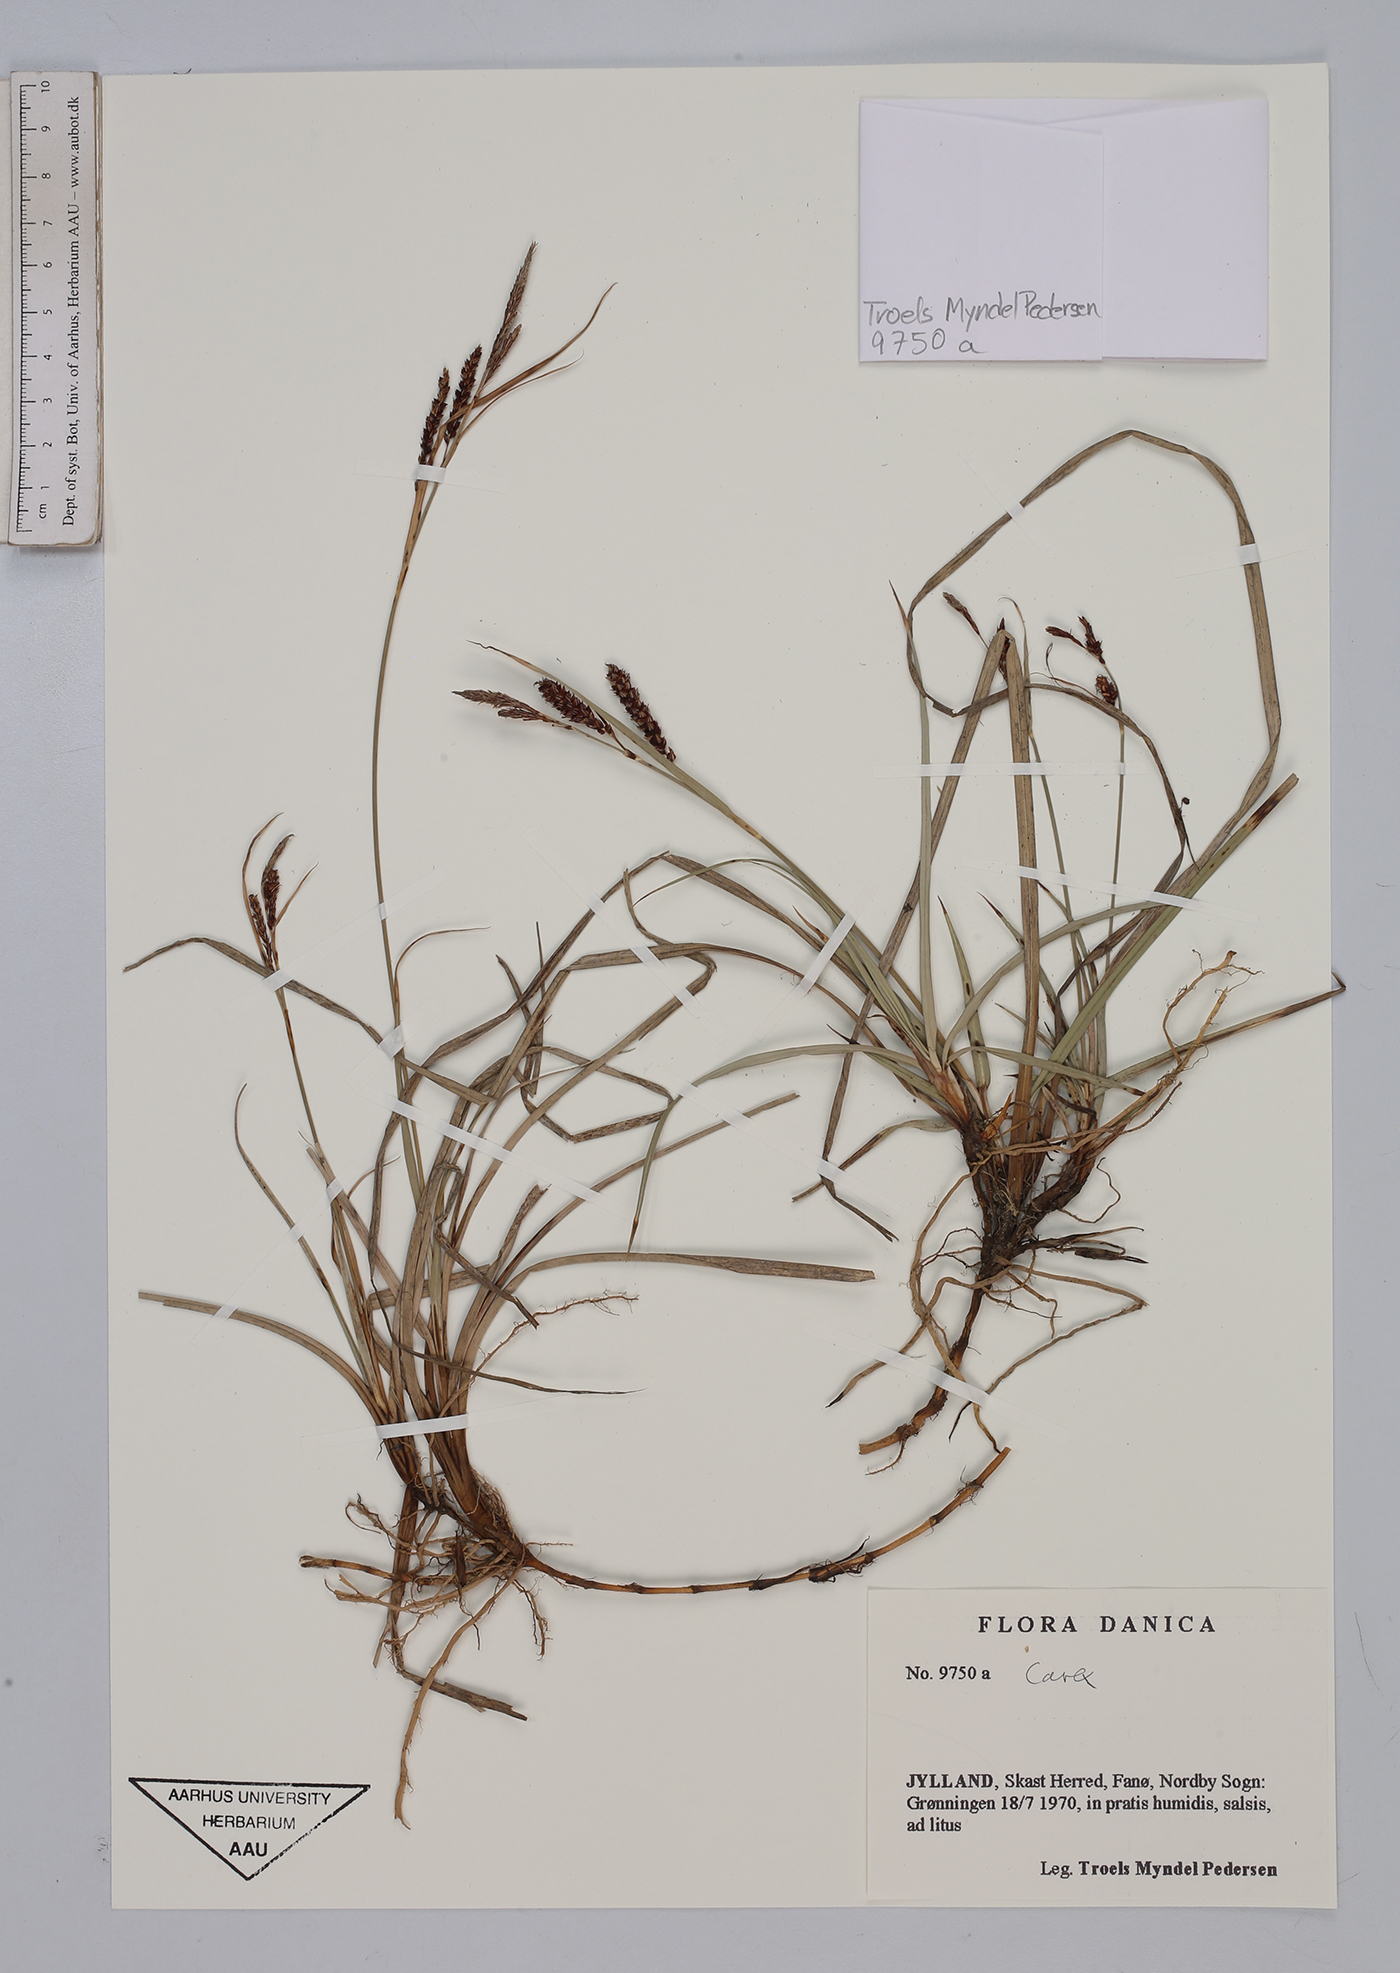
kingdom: Plantae
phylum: Tracheophyta
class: Liliopsida
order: Poales
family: Cyperaceae
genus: Carex
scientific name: Carex
